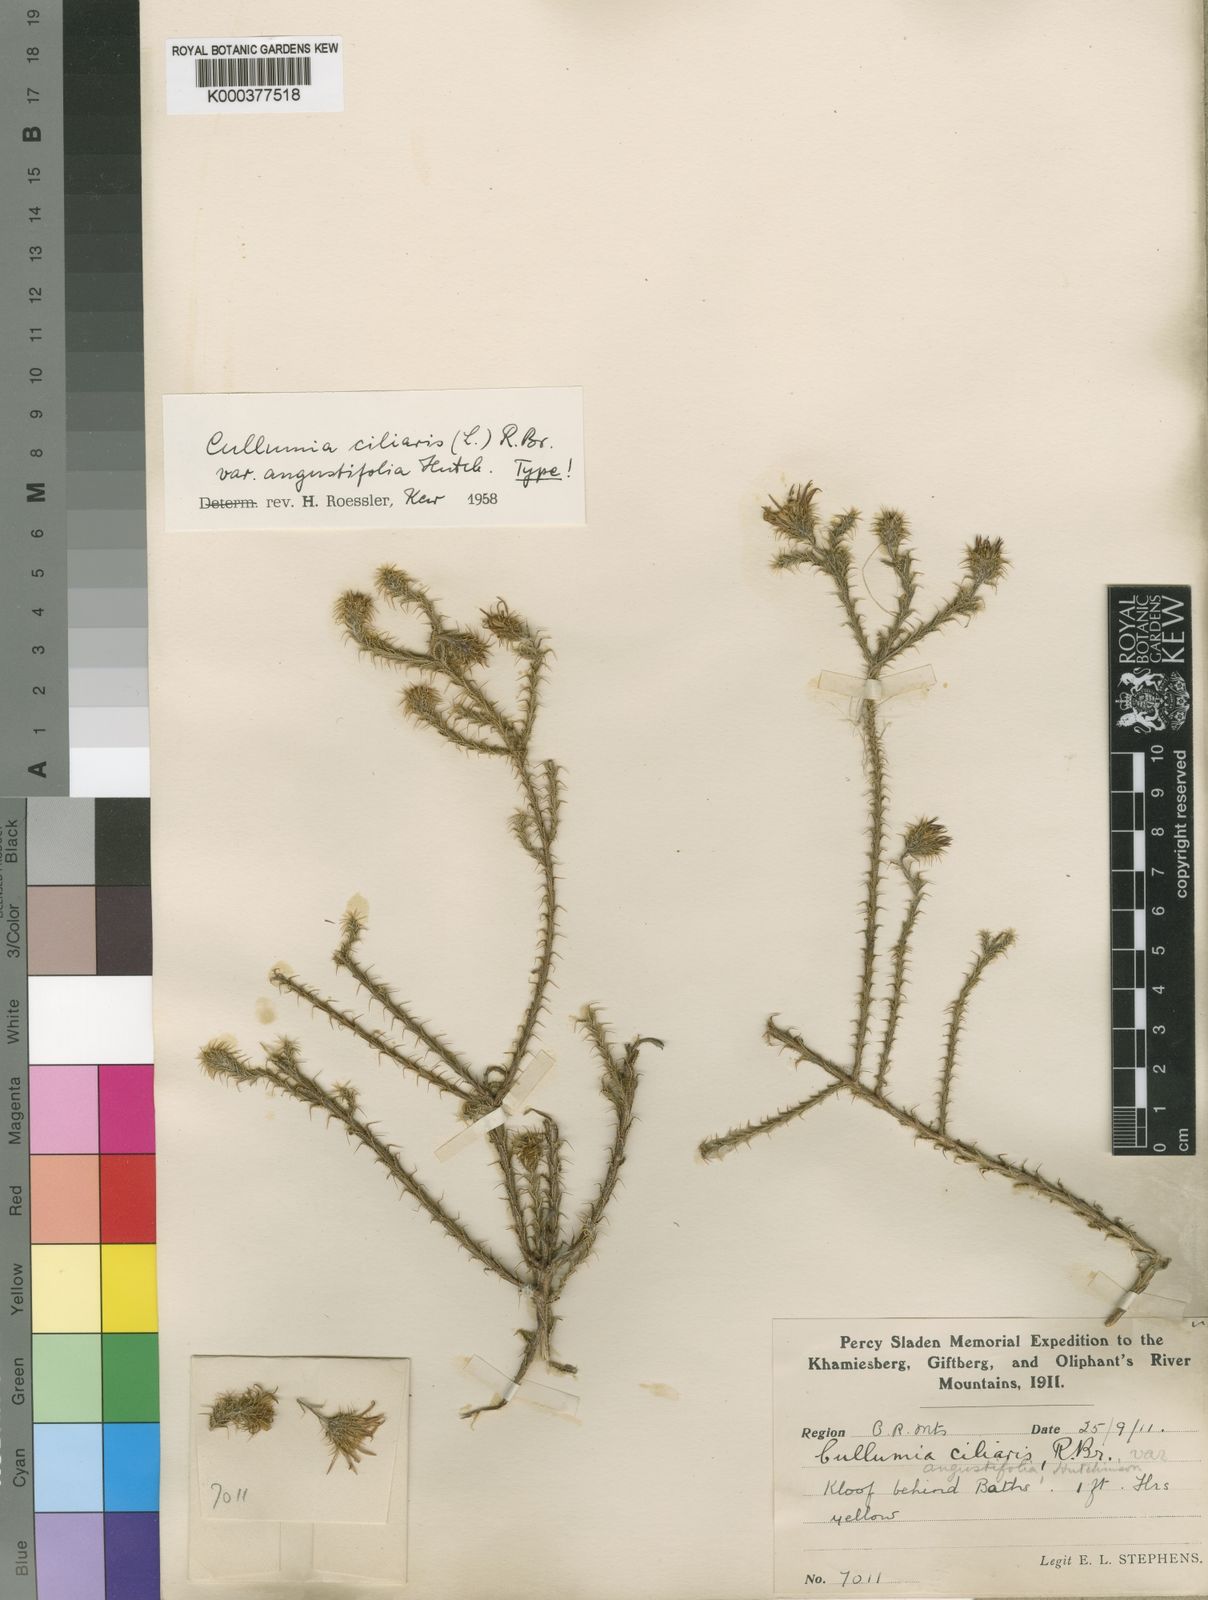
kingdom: Plantae
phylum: Tracheophyta
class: Magnoliopsida
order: Asterales
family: Asteraceae
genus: Cullumia
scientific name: Cullumia ciliaris
